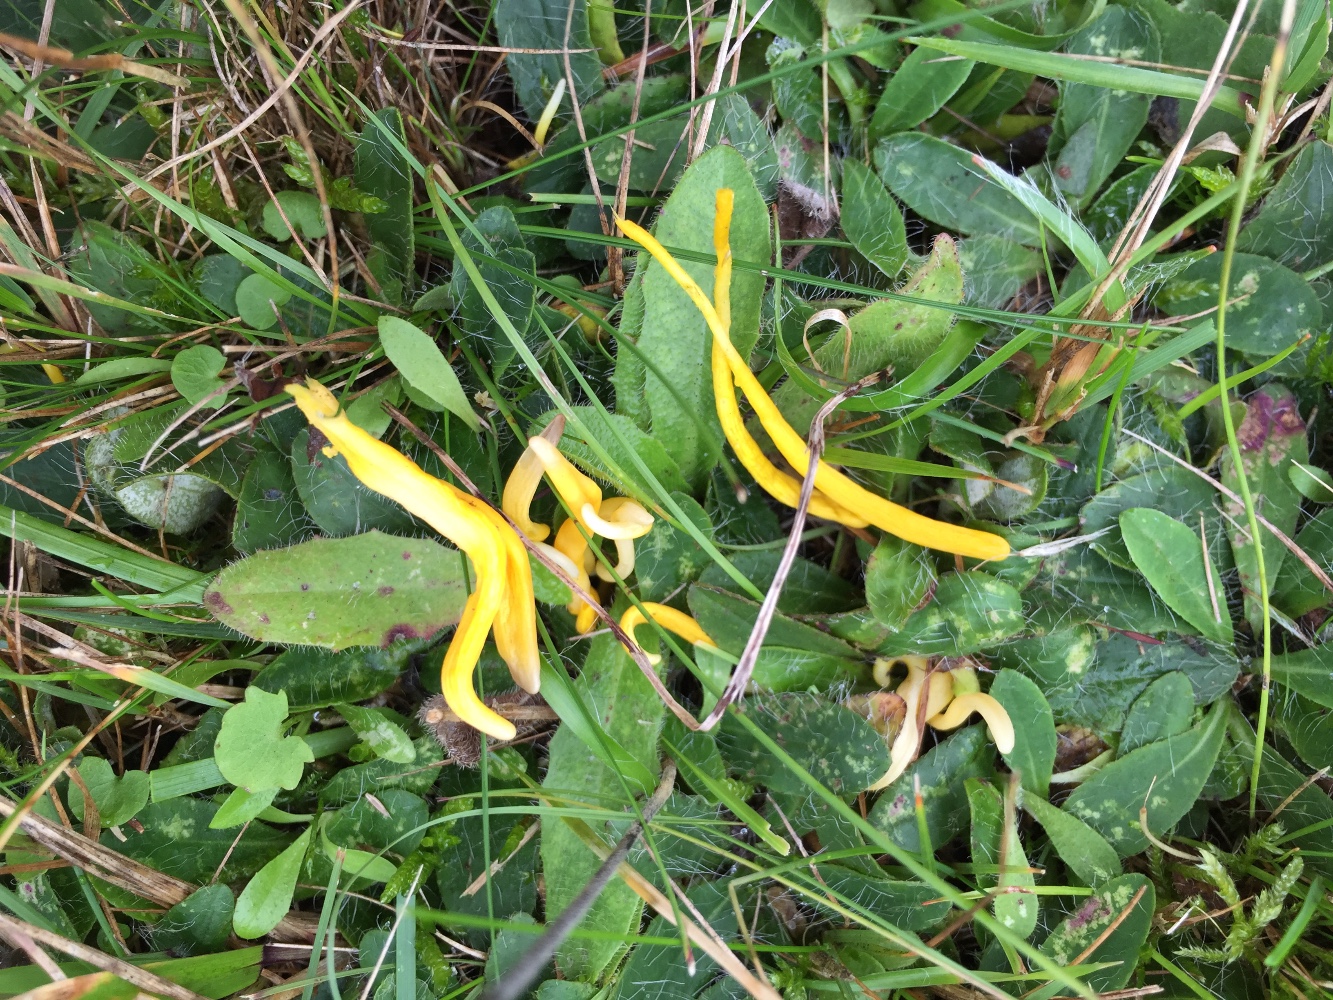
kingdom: Fungi
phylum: Basidiomycota
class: Agaricomycetes
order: Agaricales
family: Clavariaceae
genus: Clavulinopsis
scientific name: Clavulinopsis helvola
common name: orangegul køllesvamp
